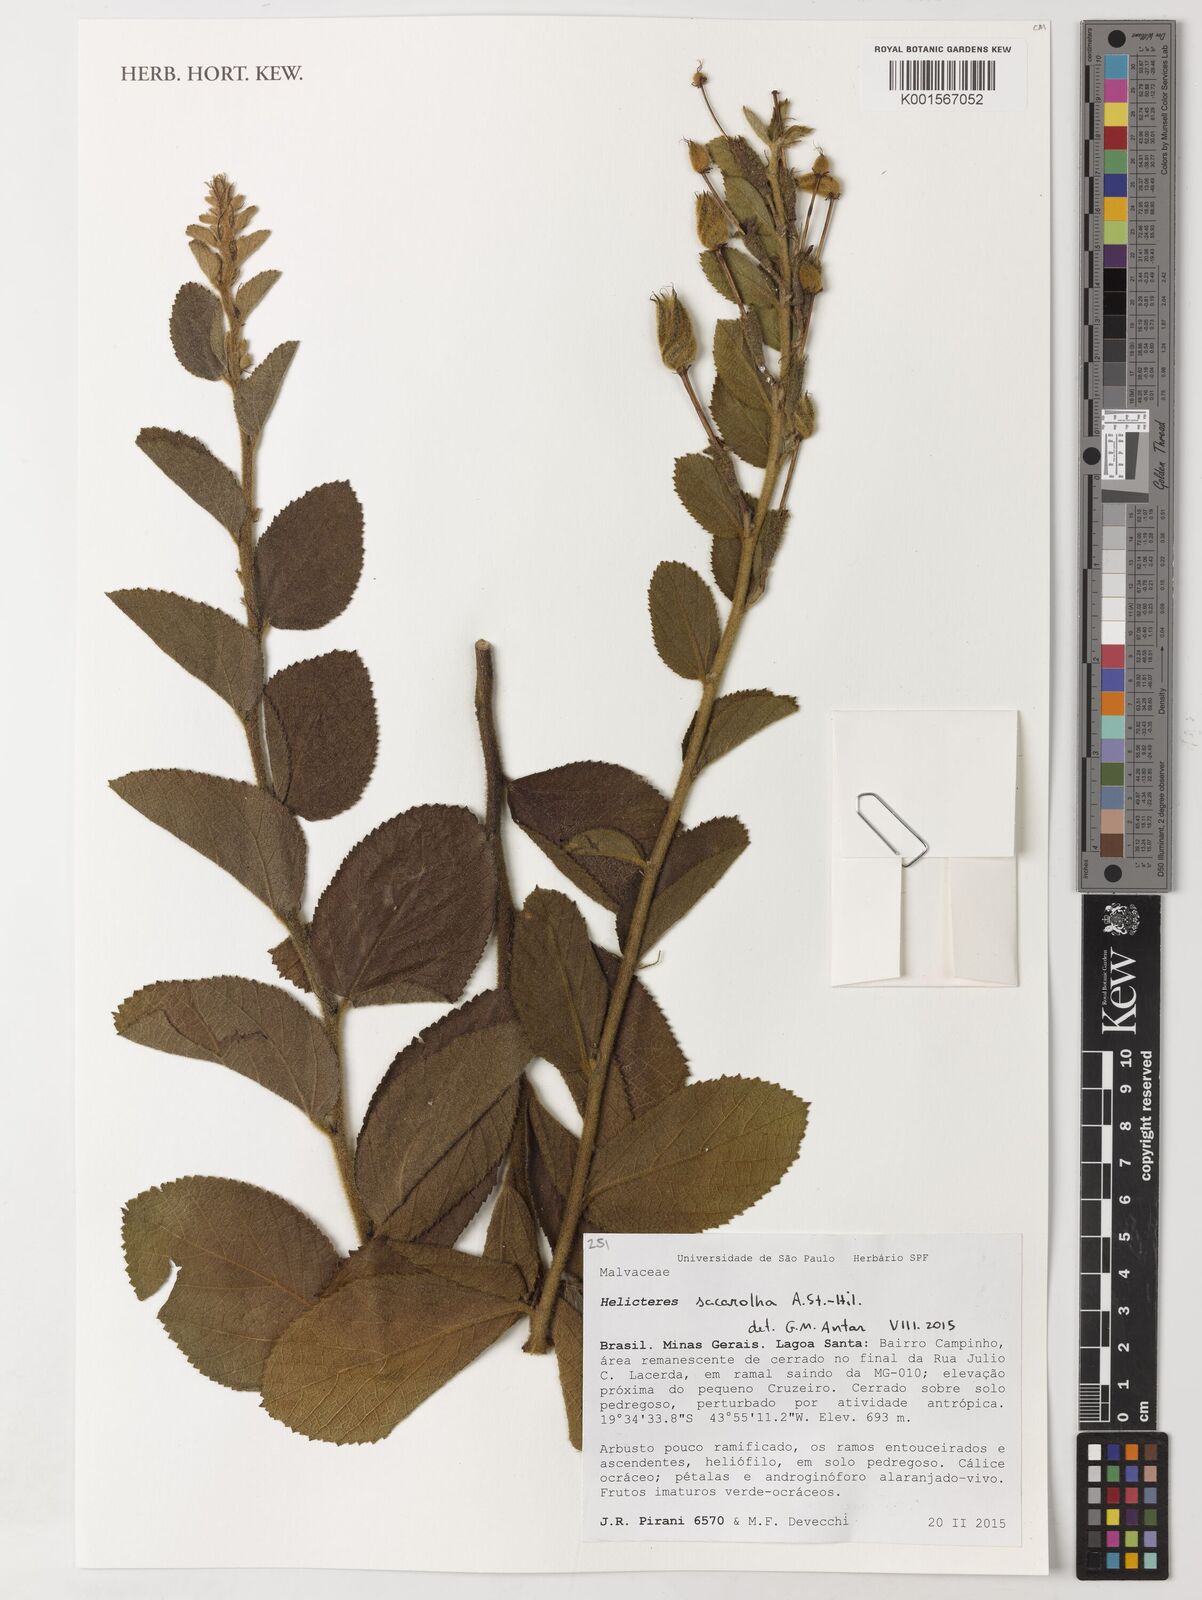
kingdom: Plantae
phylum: Tracheophyta
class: Magnoliopsida
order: Malvales
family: Malvaceae
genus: Helicteres
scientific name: Helicteres sacarolha
